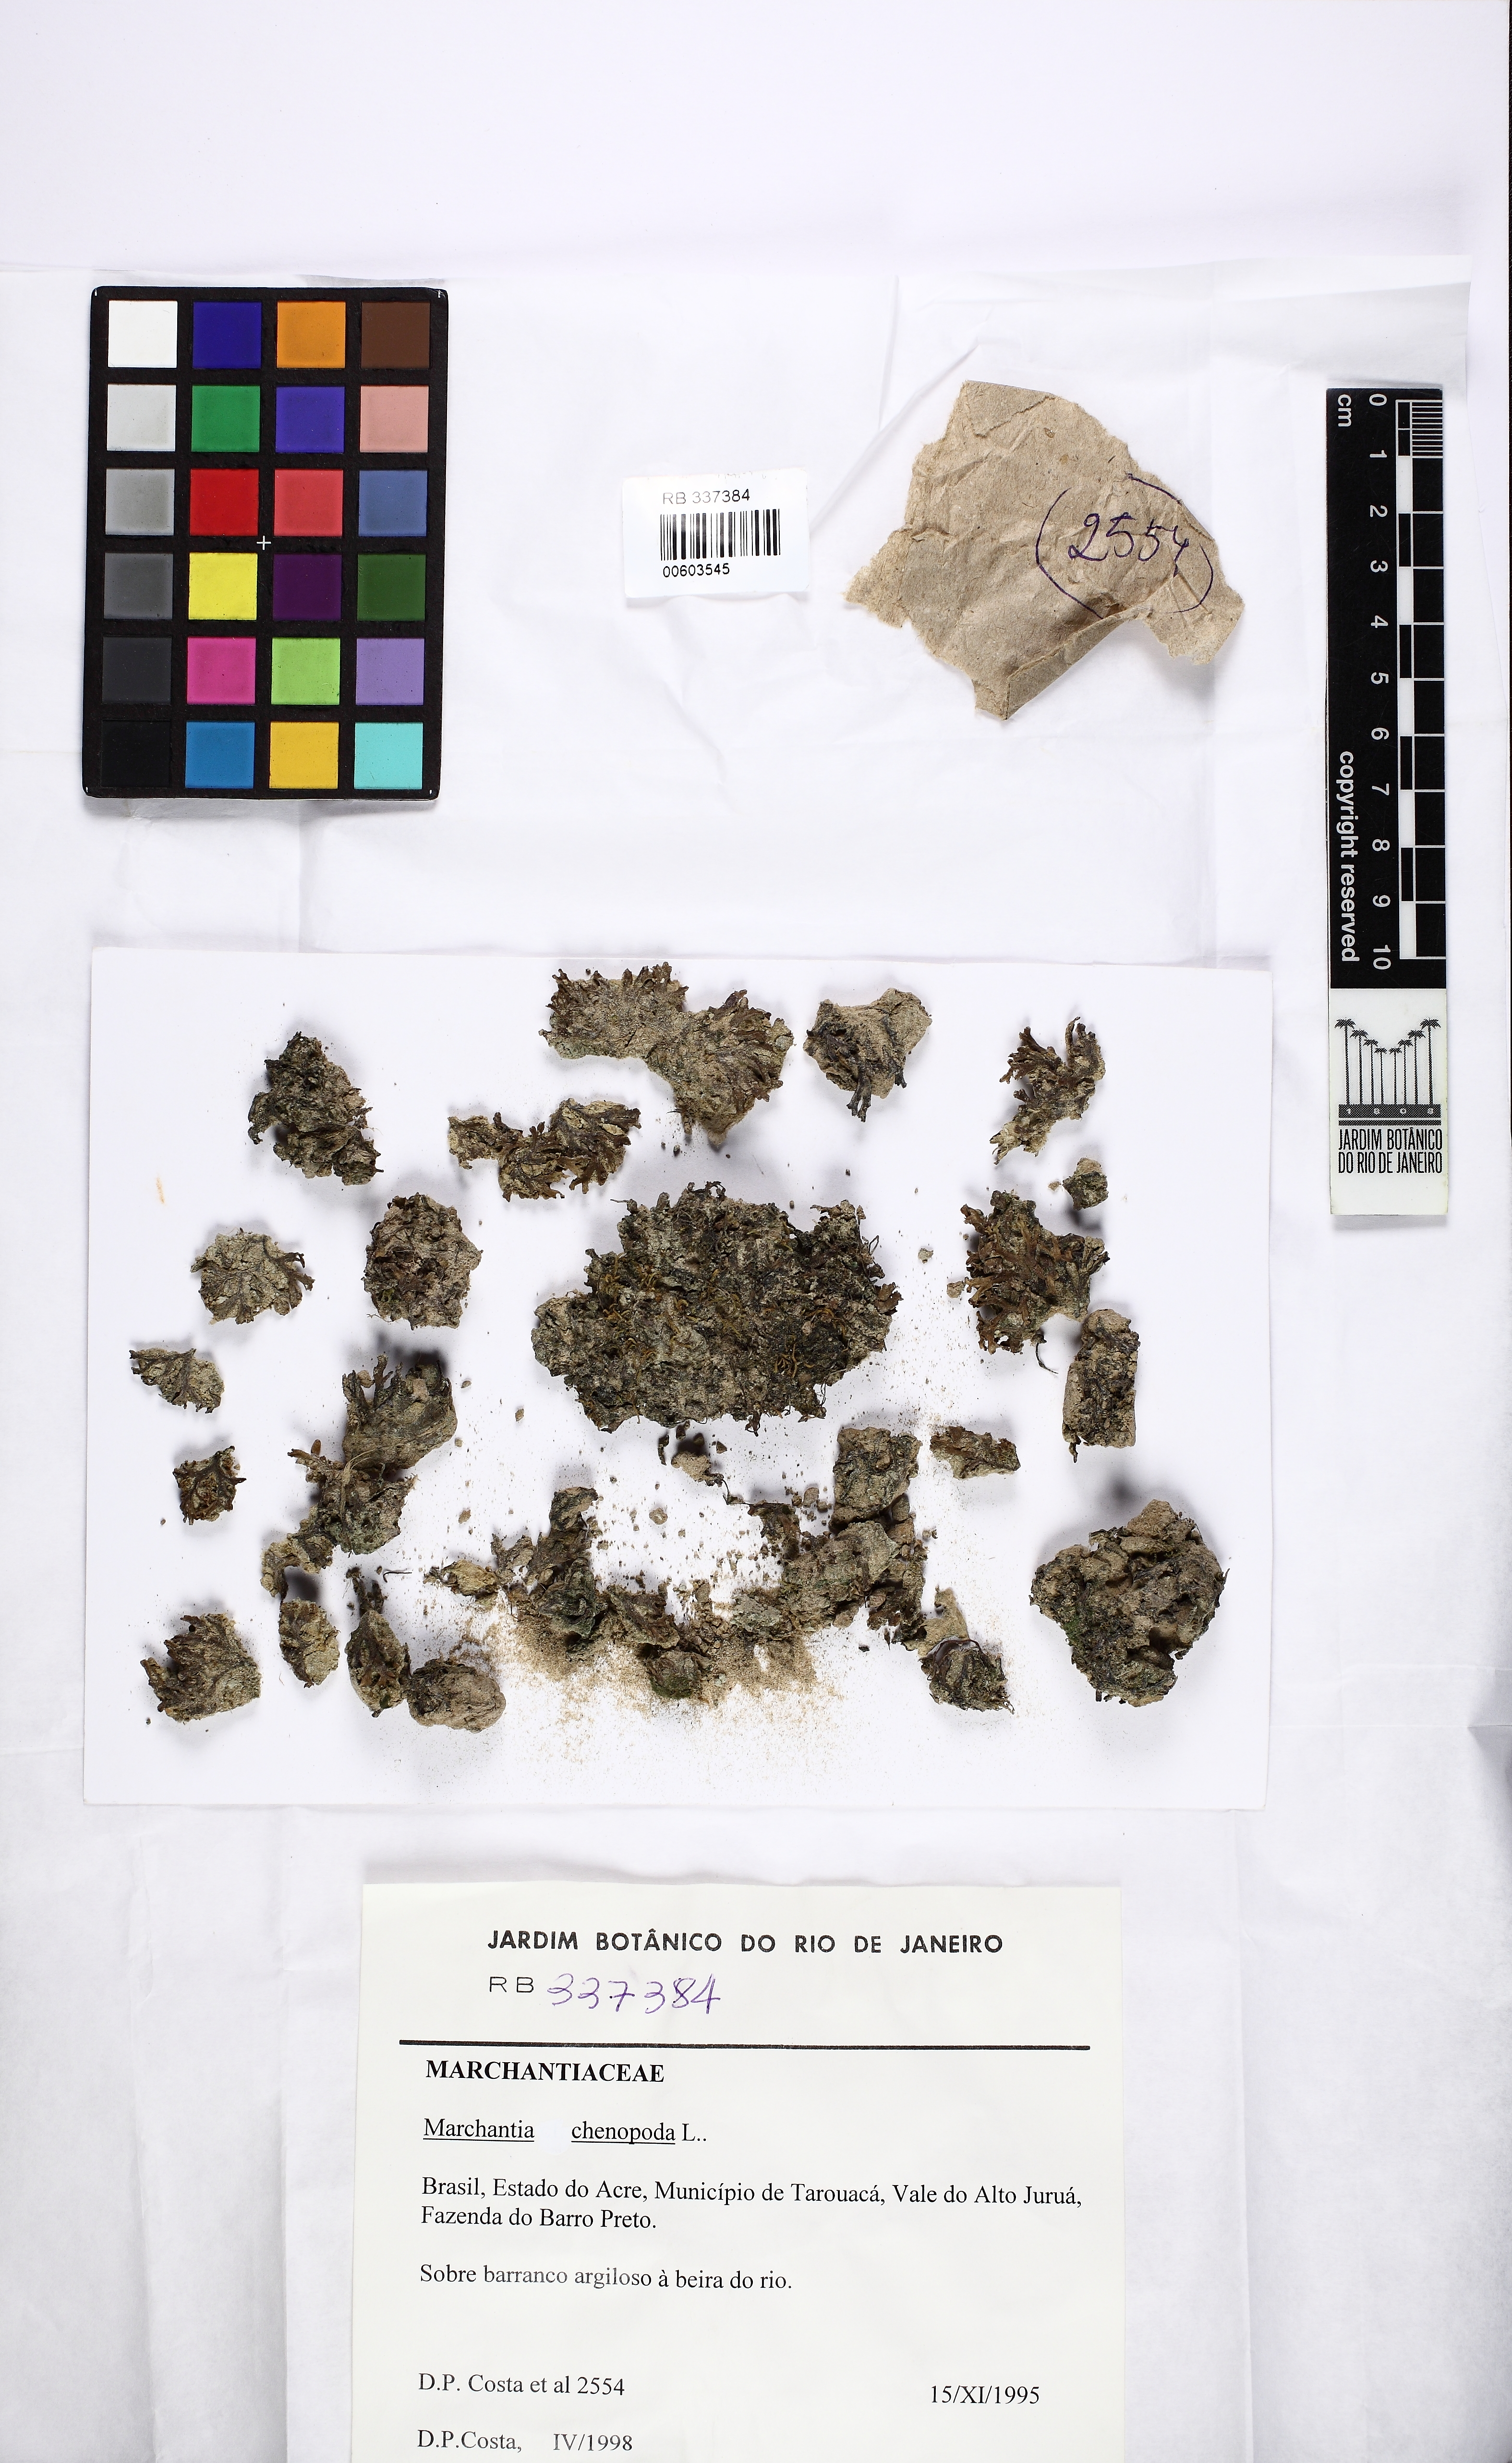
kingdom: Plantae
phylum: Marchantiophyta
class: Marchantiopsida
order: Marchantiales
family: Marchantiaceae
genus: Marchantia
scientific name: Marchantia chenopoda
